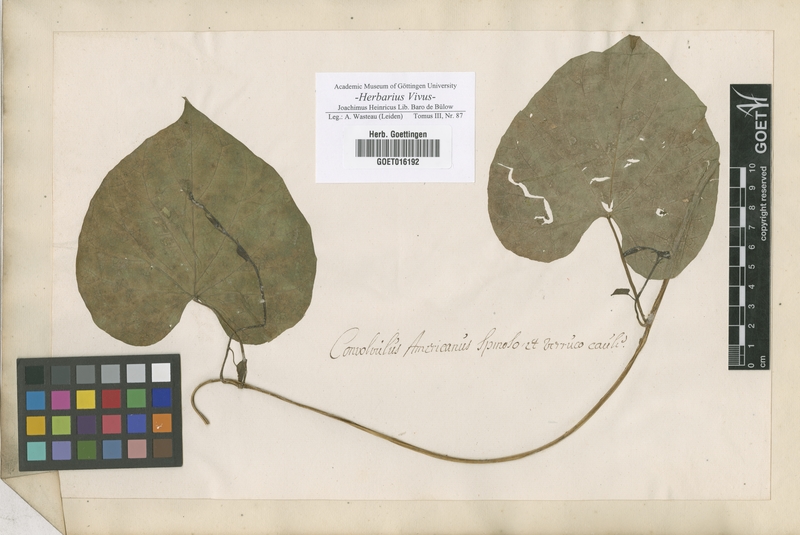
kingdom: Plantae
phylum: Tracheophyta
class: Magnoliopsida
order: Solanales
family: Convolvulaceae
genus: Convolvulus
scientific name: Convolvulus
